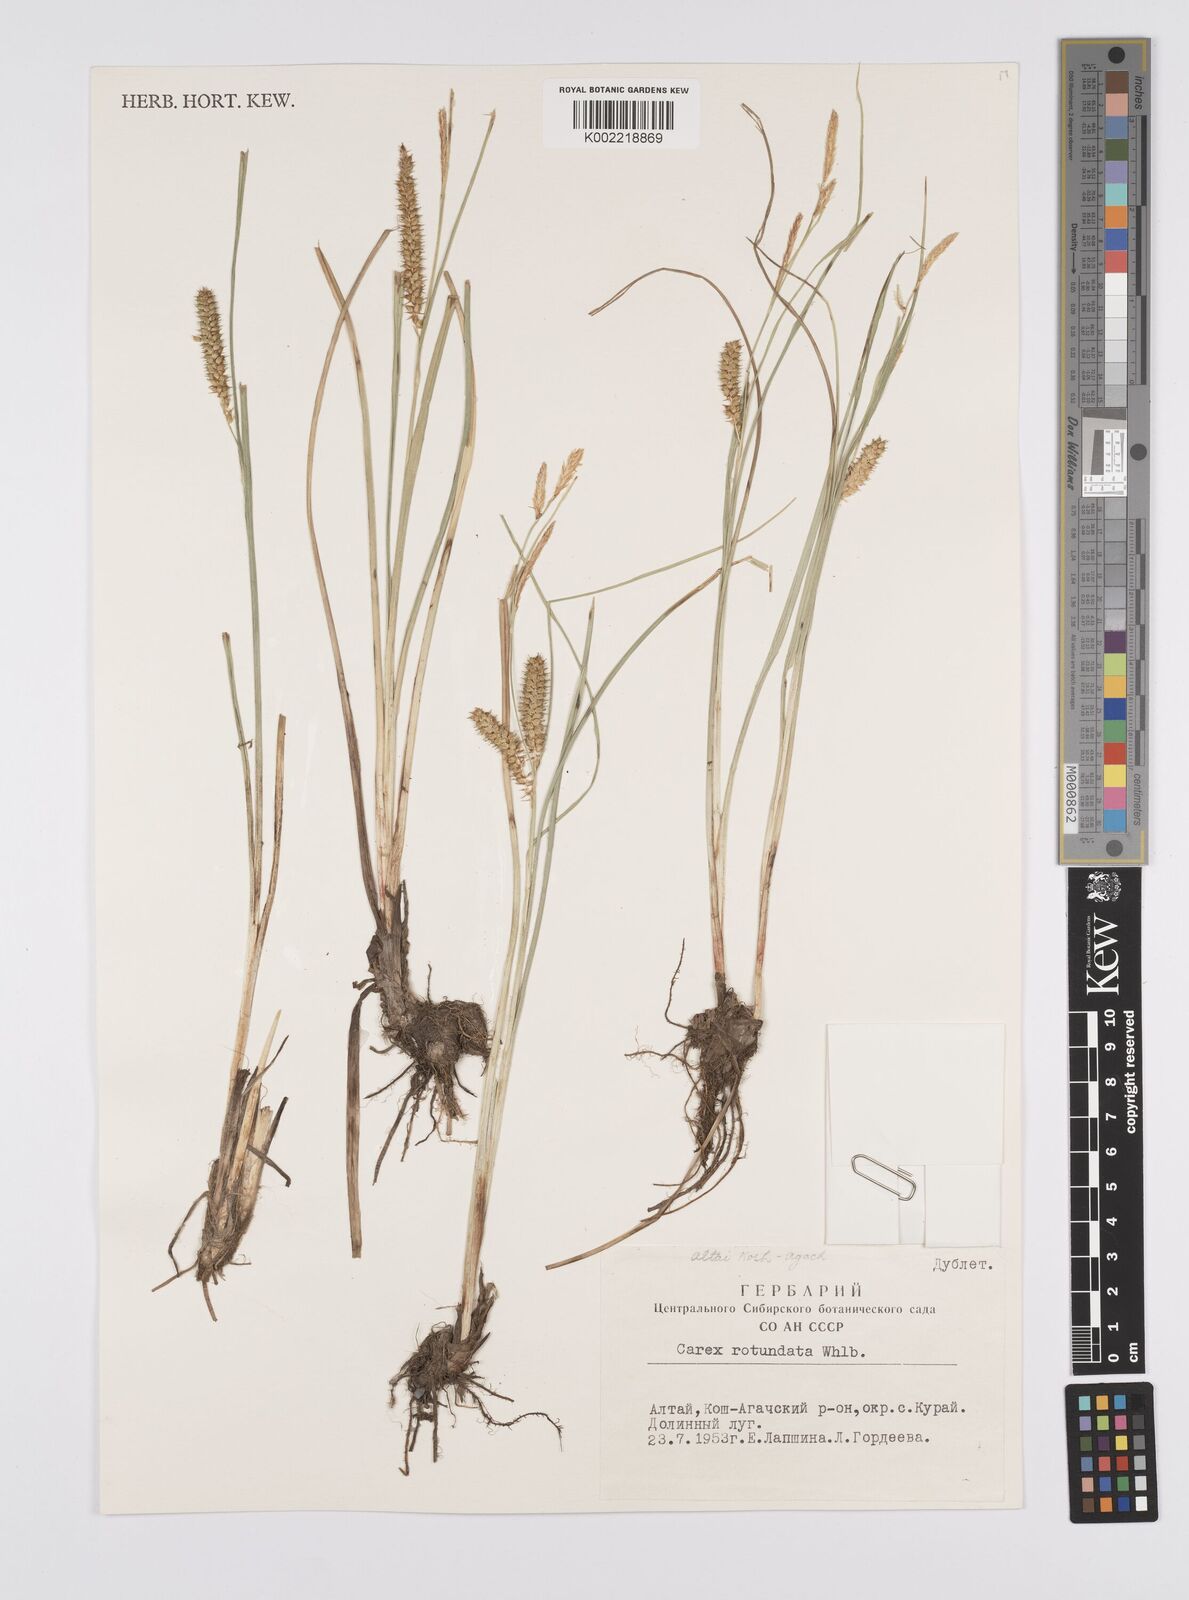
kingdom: Plantae
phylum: Tracheophyta
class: Liliopsida
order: Poales
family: Cyperaceae
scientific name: Cyperaceae
